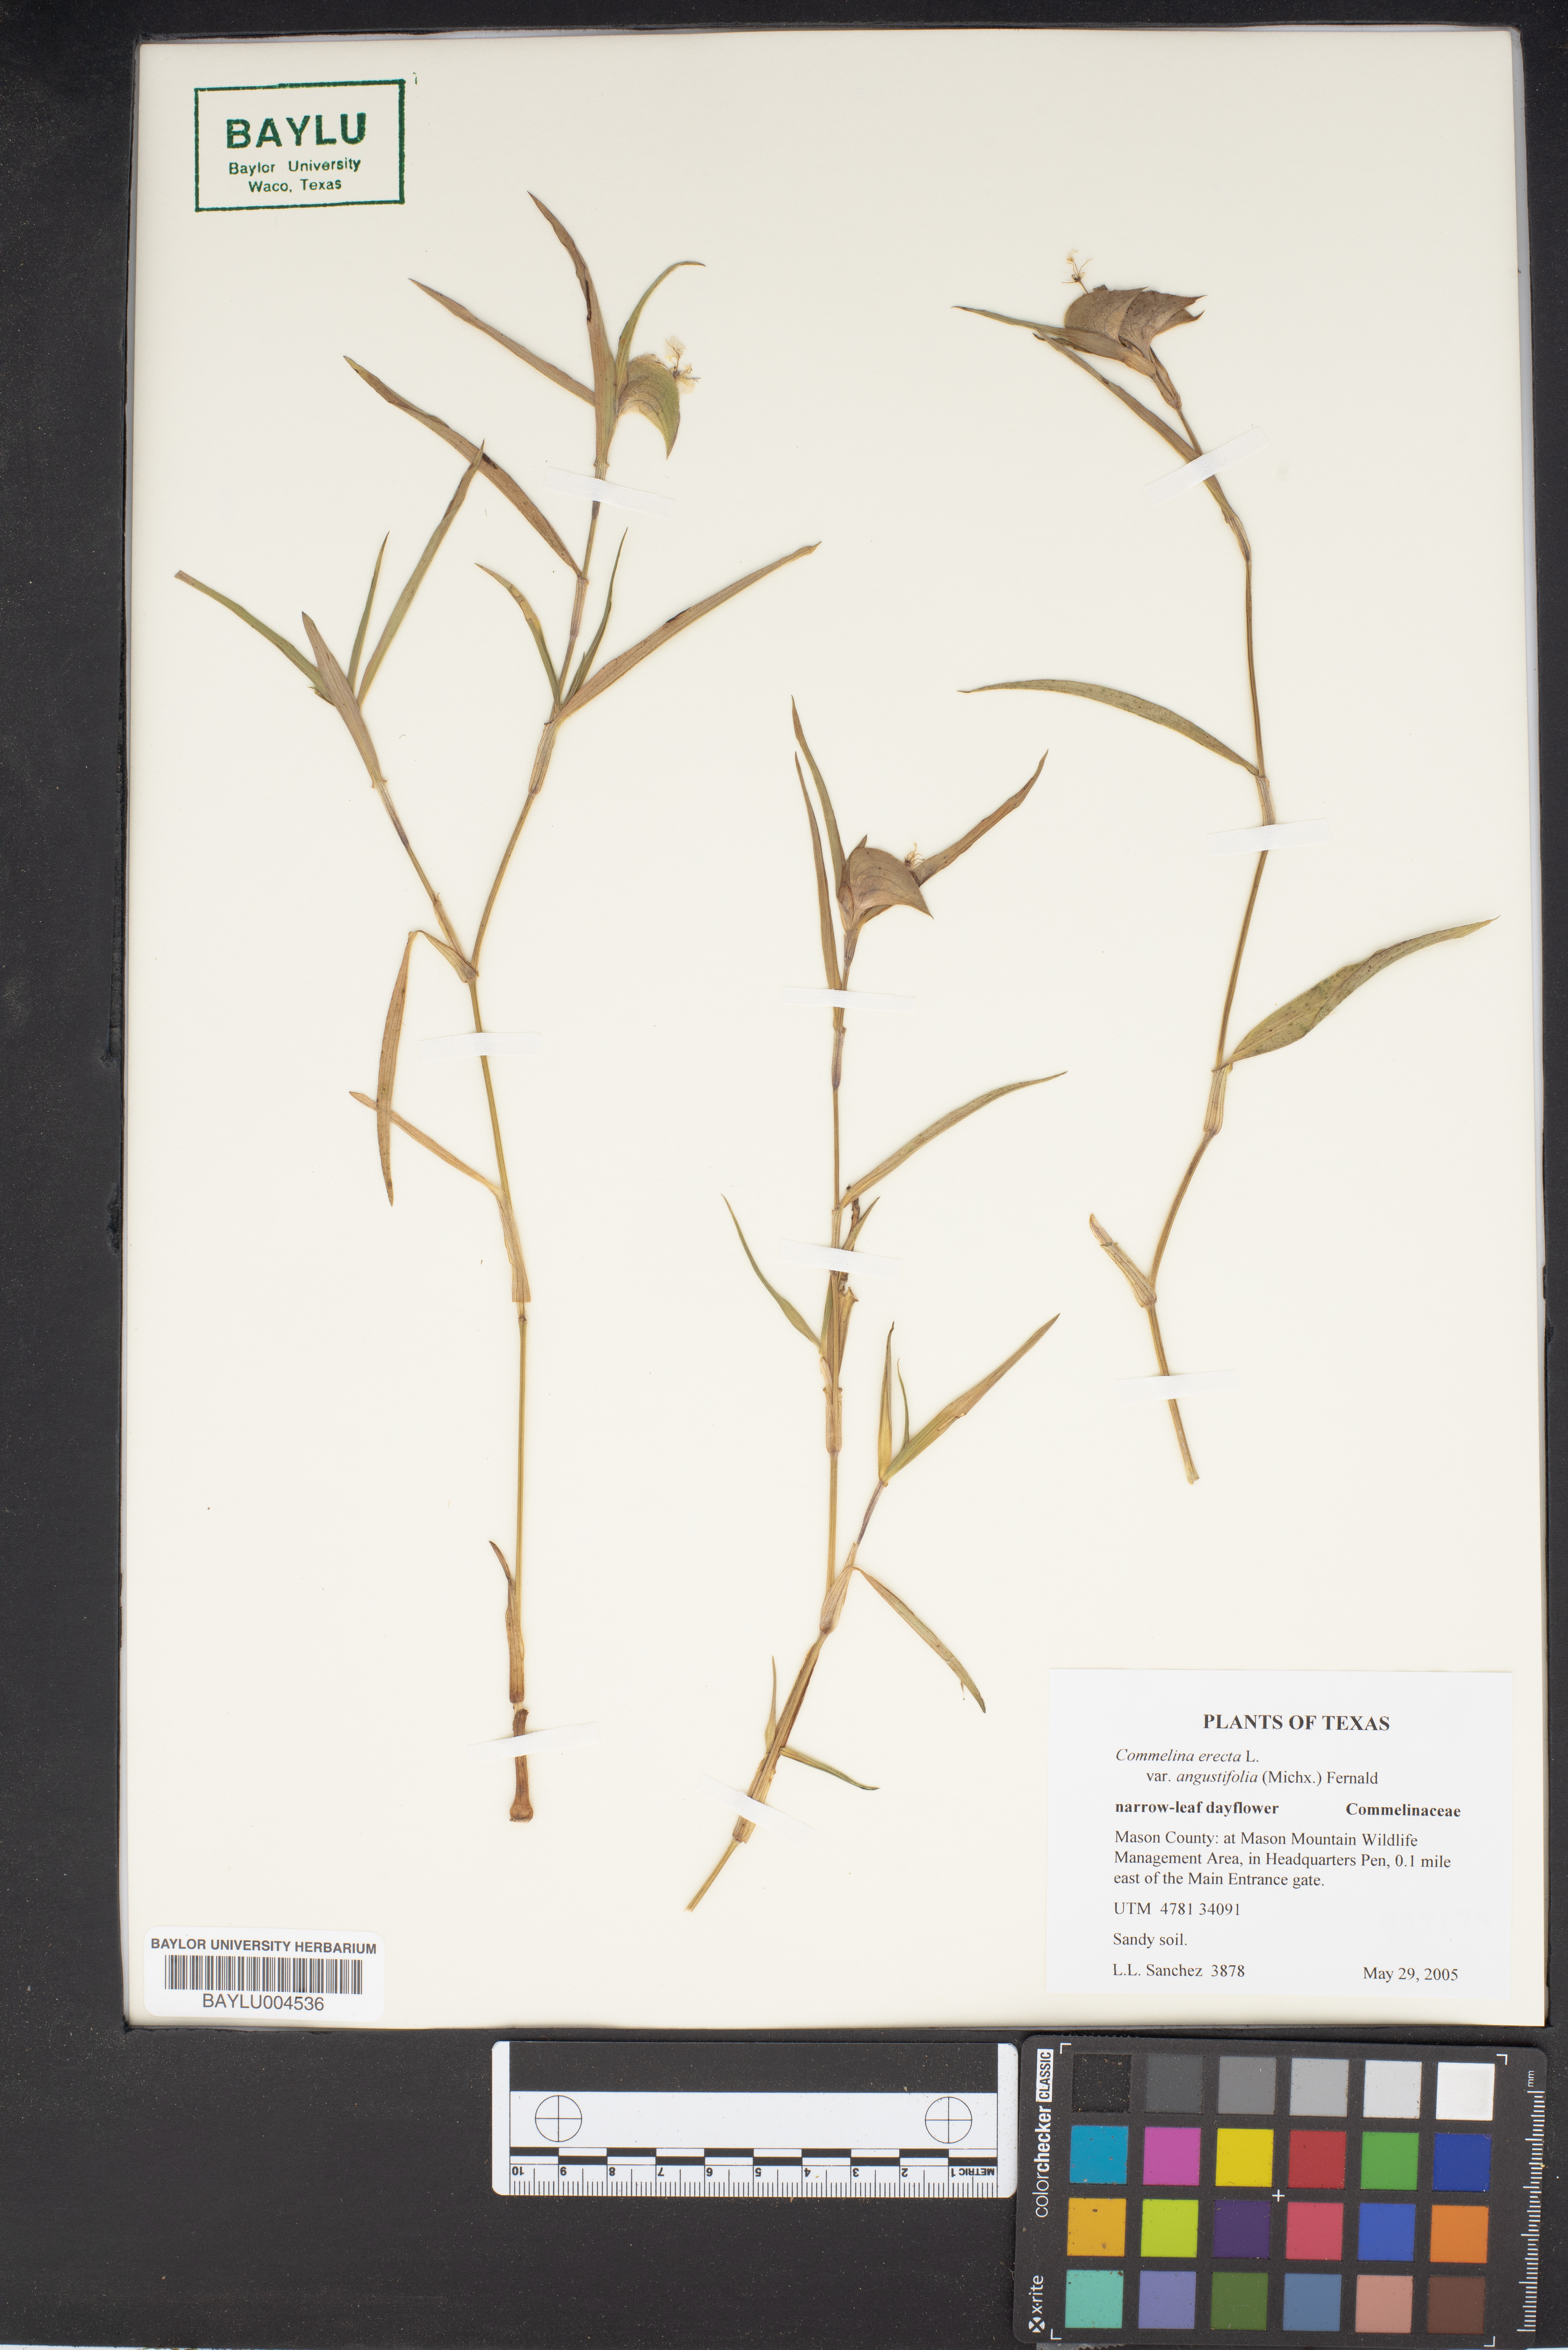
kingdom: Plantae
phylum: Tracheophyta
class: Liliopsida
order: Commelinales
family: Commelinaceae
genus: Commelina
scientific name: Commelina erecta
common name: Blousel blommetjie
